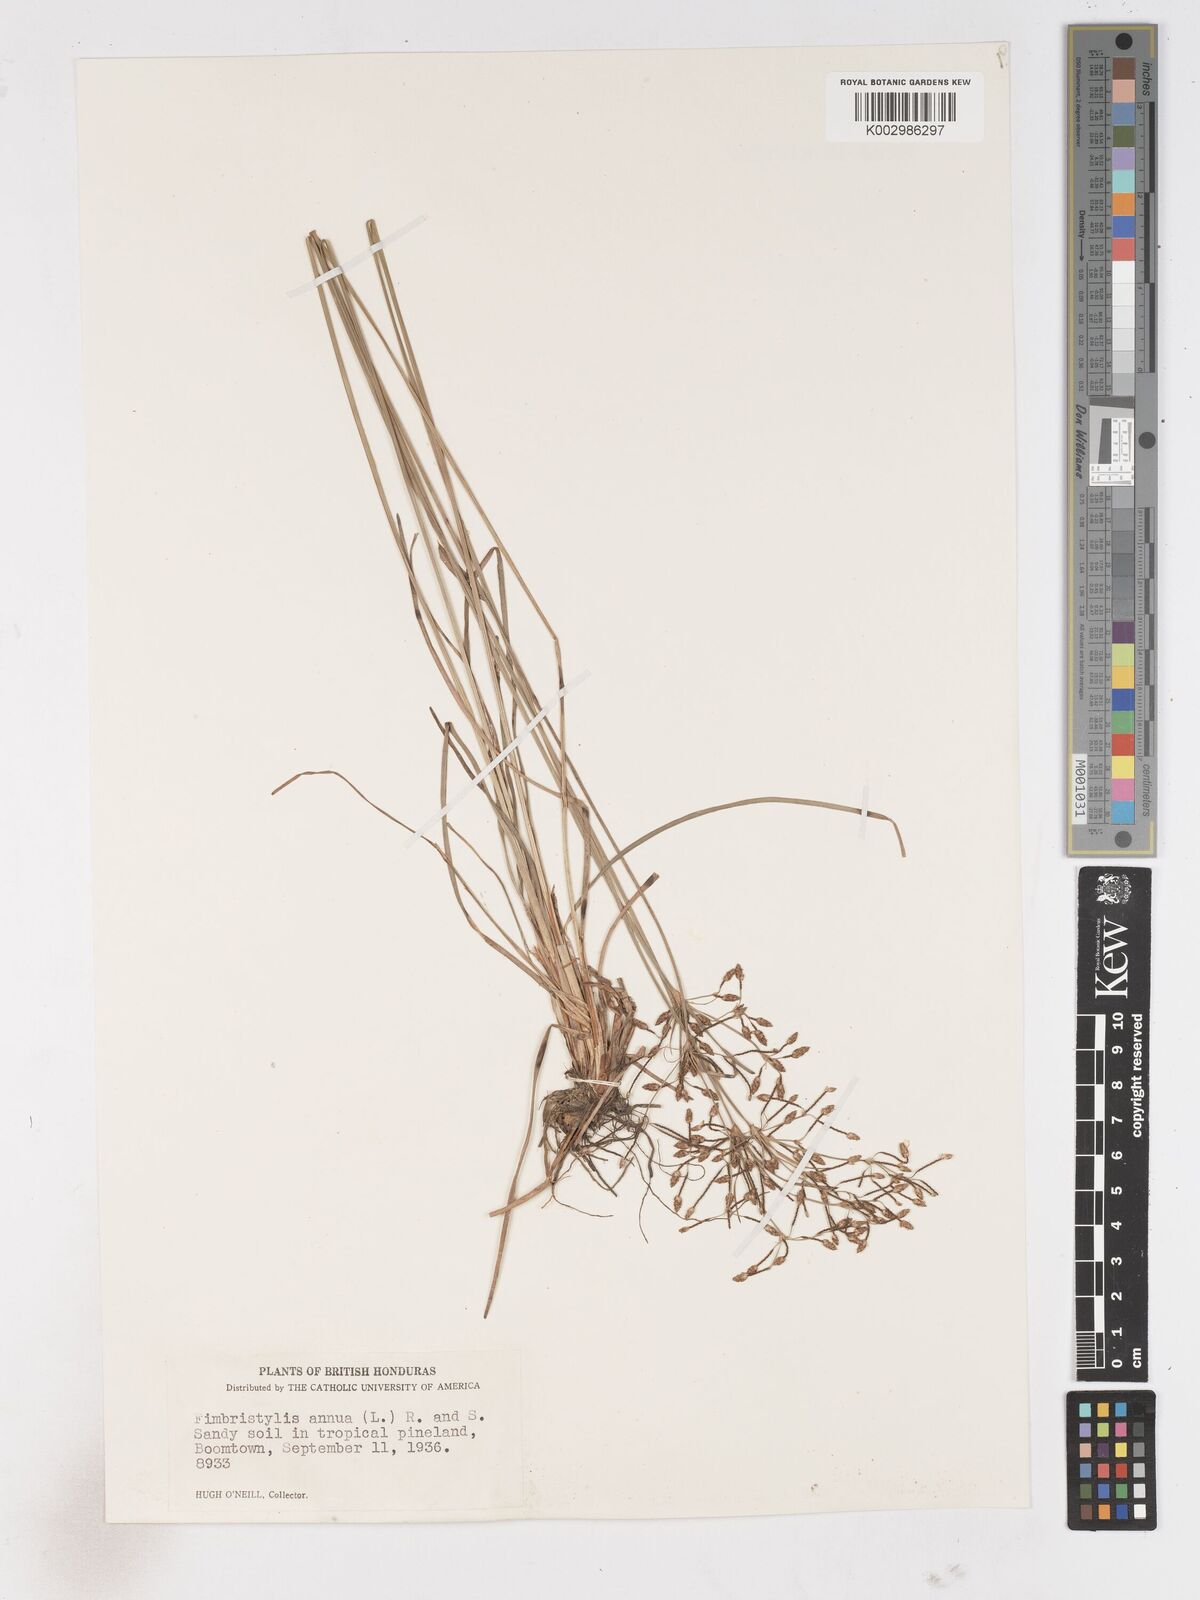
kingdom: Plantae
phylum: Tracheophyta
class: Liliopsida
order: Poales
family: Cyperaceae
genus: Fimbristylis
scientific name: Fimbristylis dichotoma
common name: Forked fimbry
